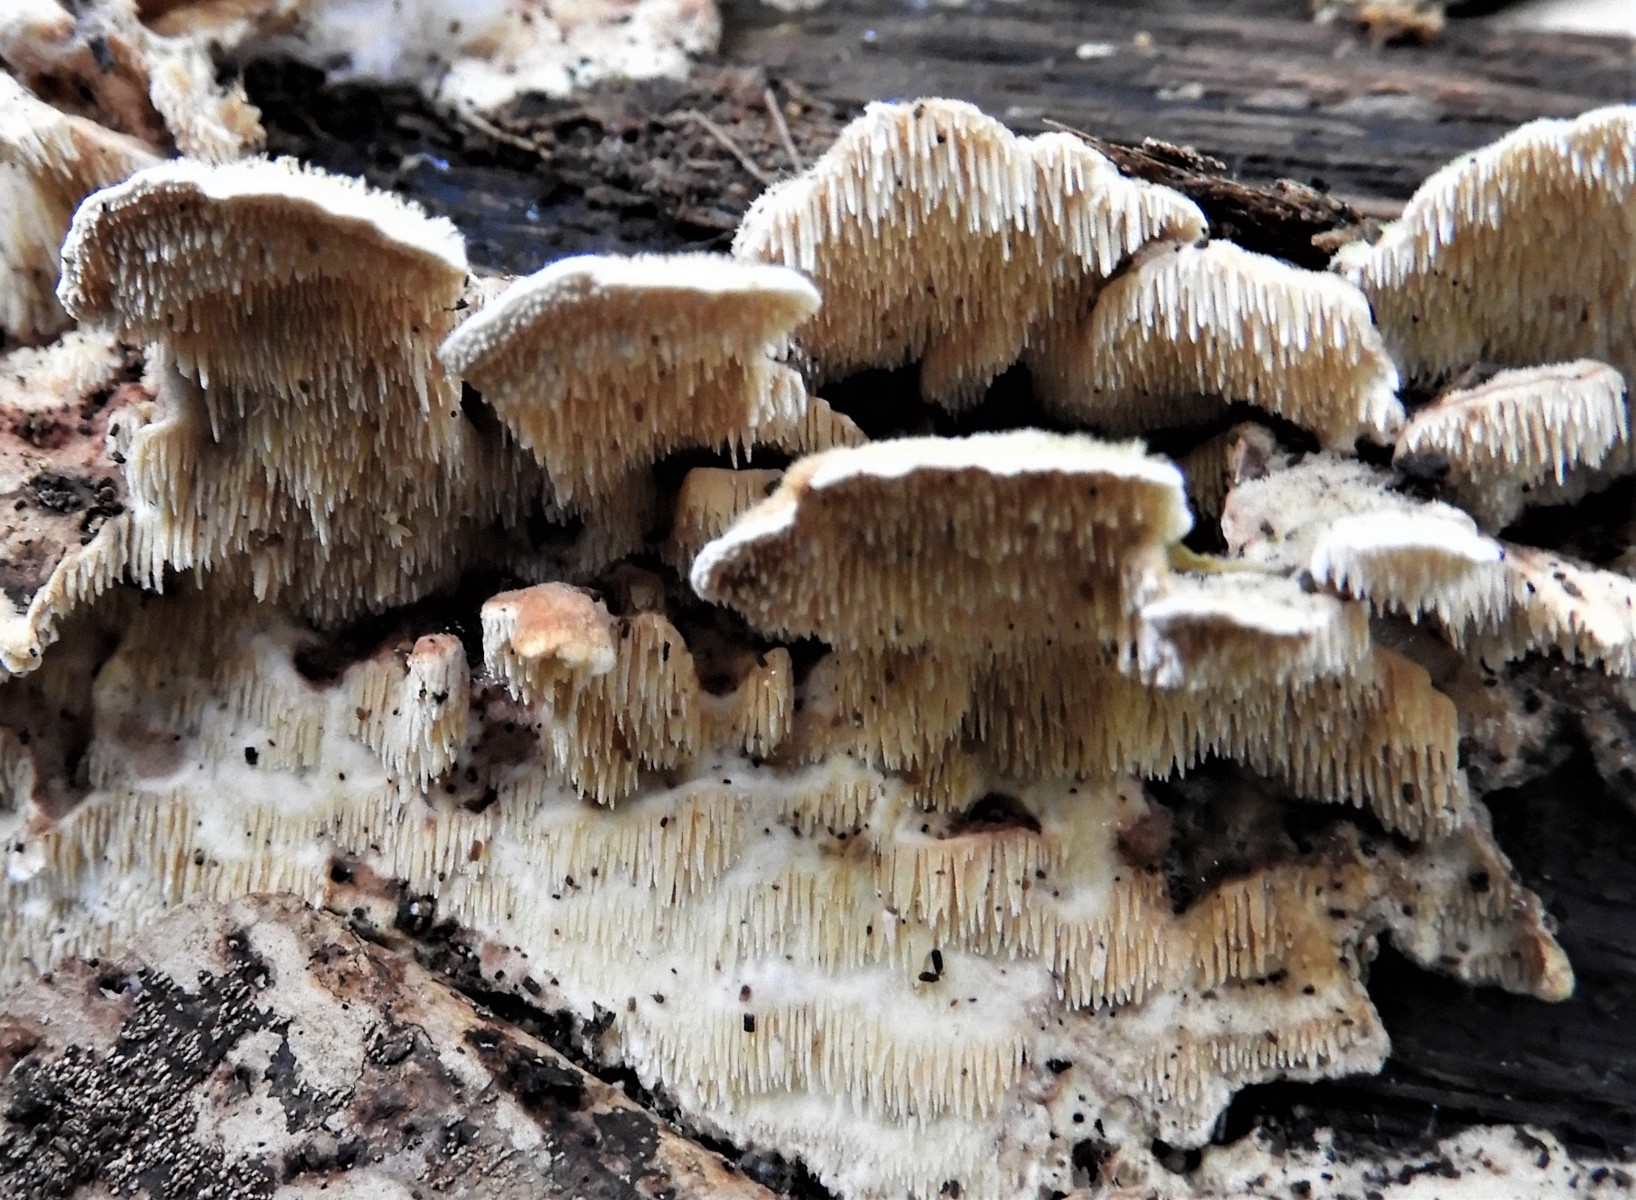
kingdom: Fungi
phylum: Basidiomycota
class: Agaricomycetes
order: Polyporales
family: Steccherinaceae
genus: Steccherinum
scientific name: Steccherinum bourdotii
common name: hat-skønpig
